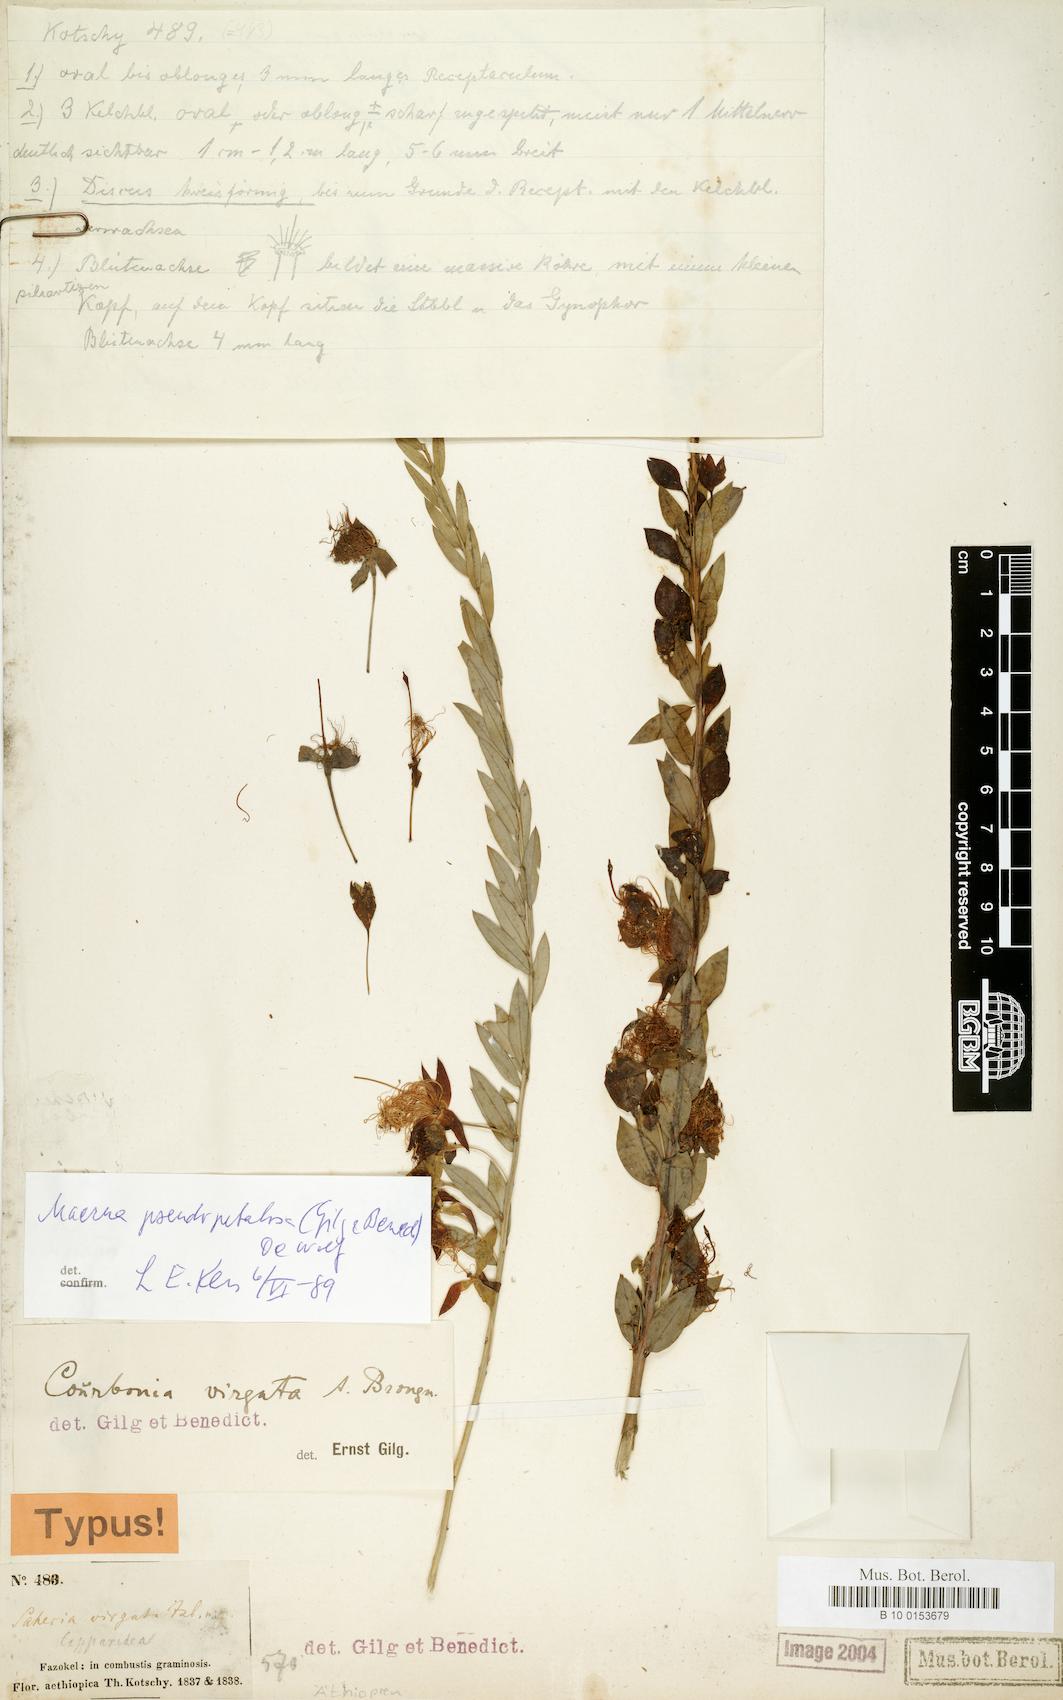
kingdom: Plantae
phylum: Tracheophyta
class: Magnoliopsida
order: Brassicales
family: Capparaceae
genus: Maerua
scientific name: Maerua pseudopetalosa
